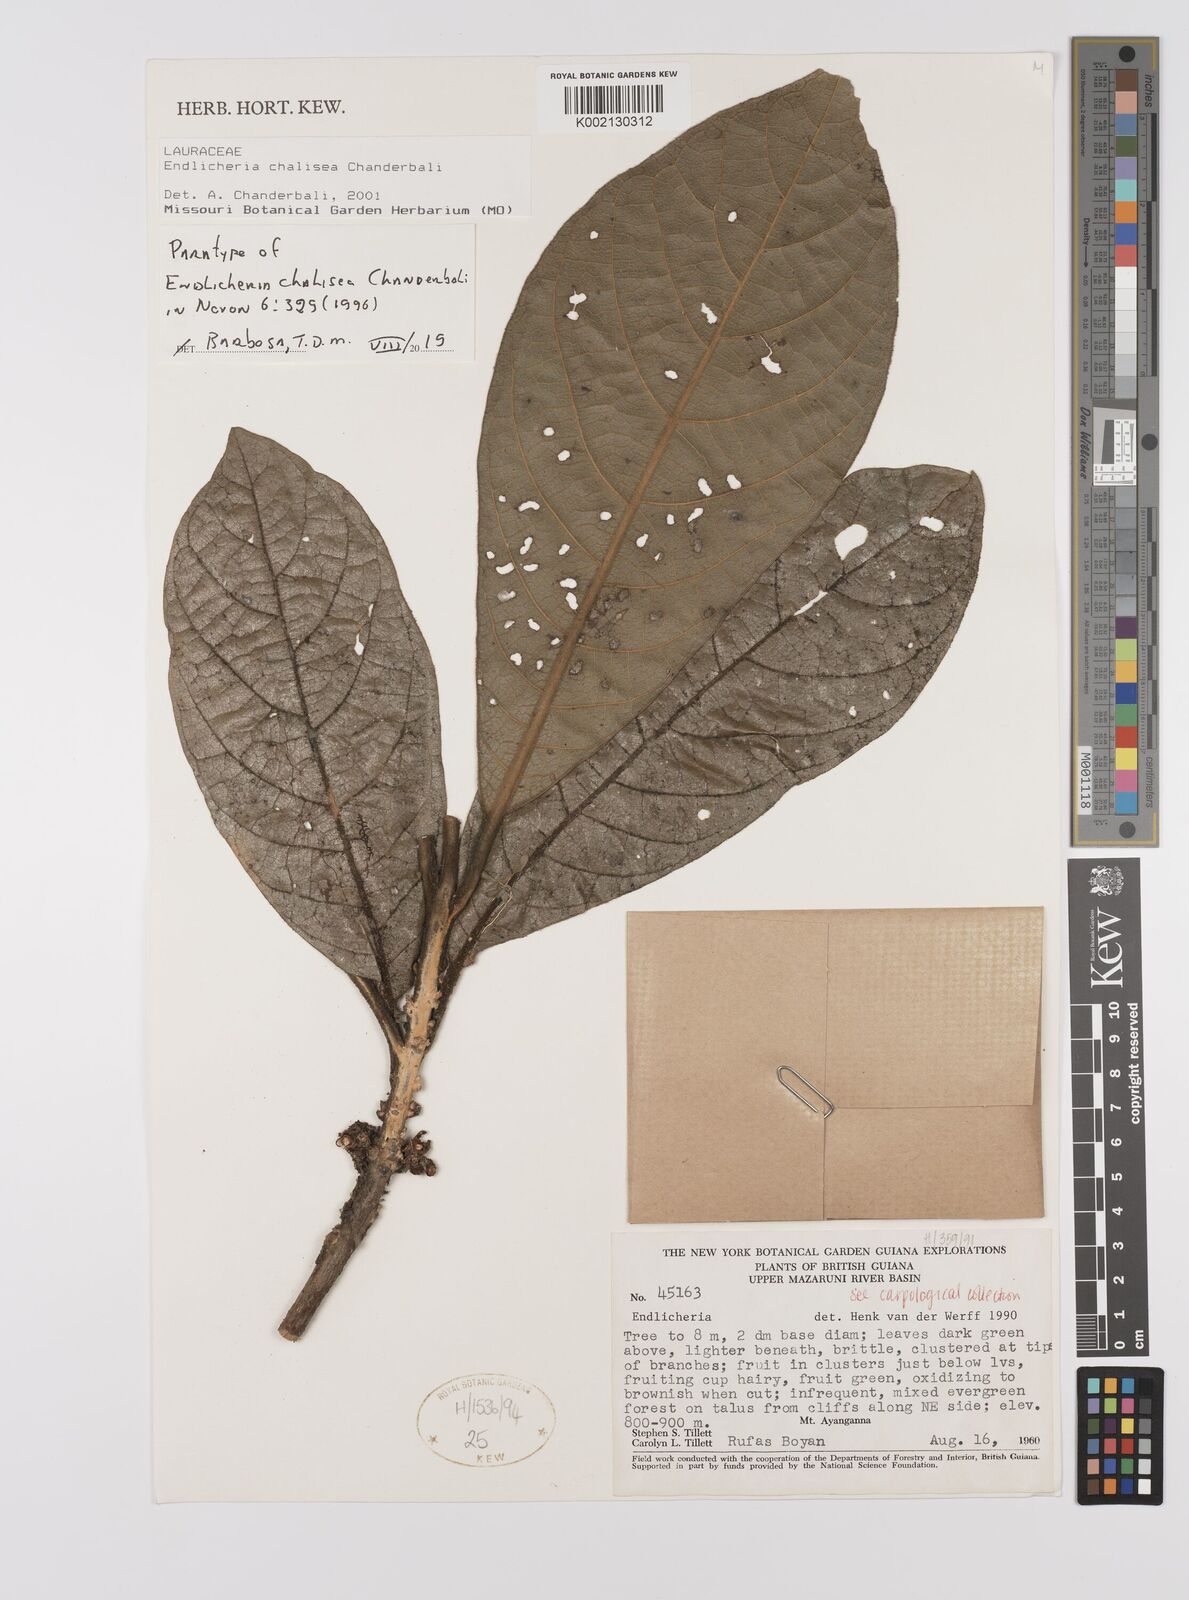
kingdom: Plantae
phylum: Tracheophyta
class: Magnoliopsida
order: Laurales
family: Lauraceae
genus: Endlicheria
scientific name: Endlicheria chalisea
